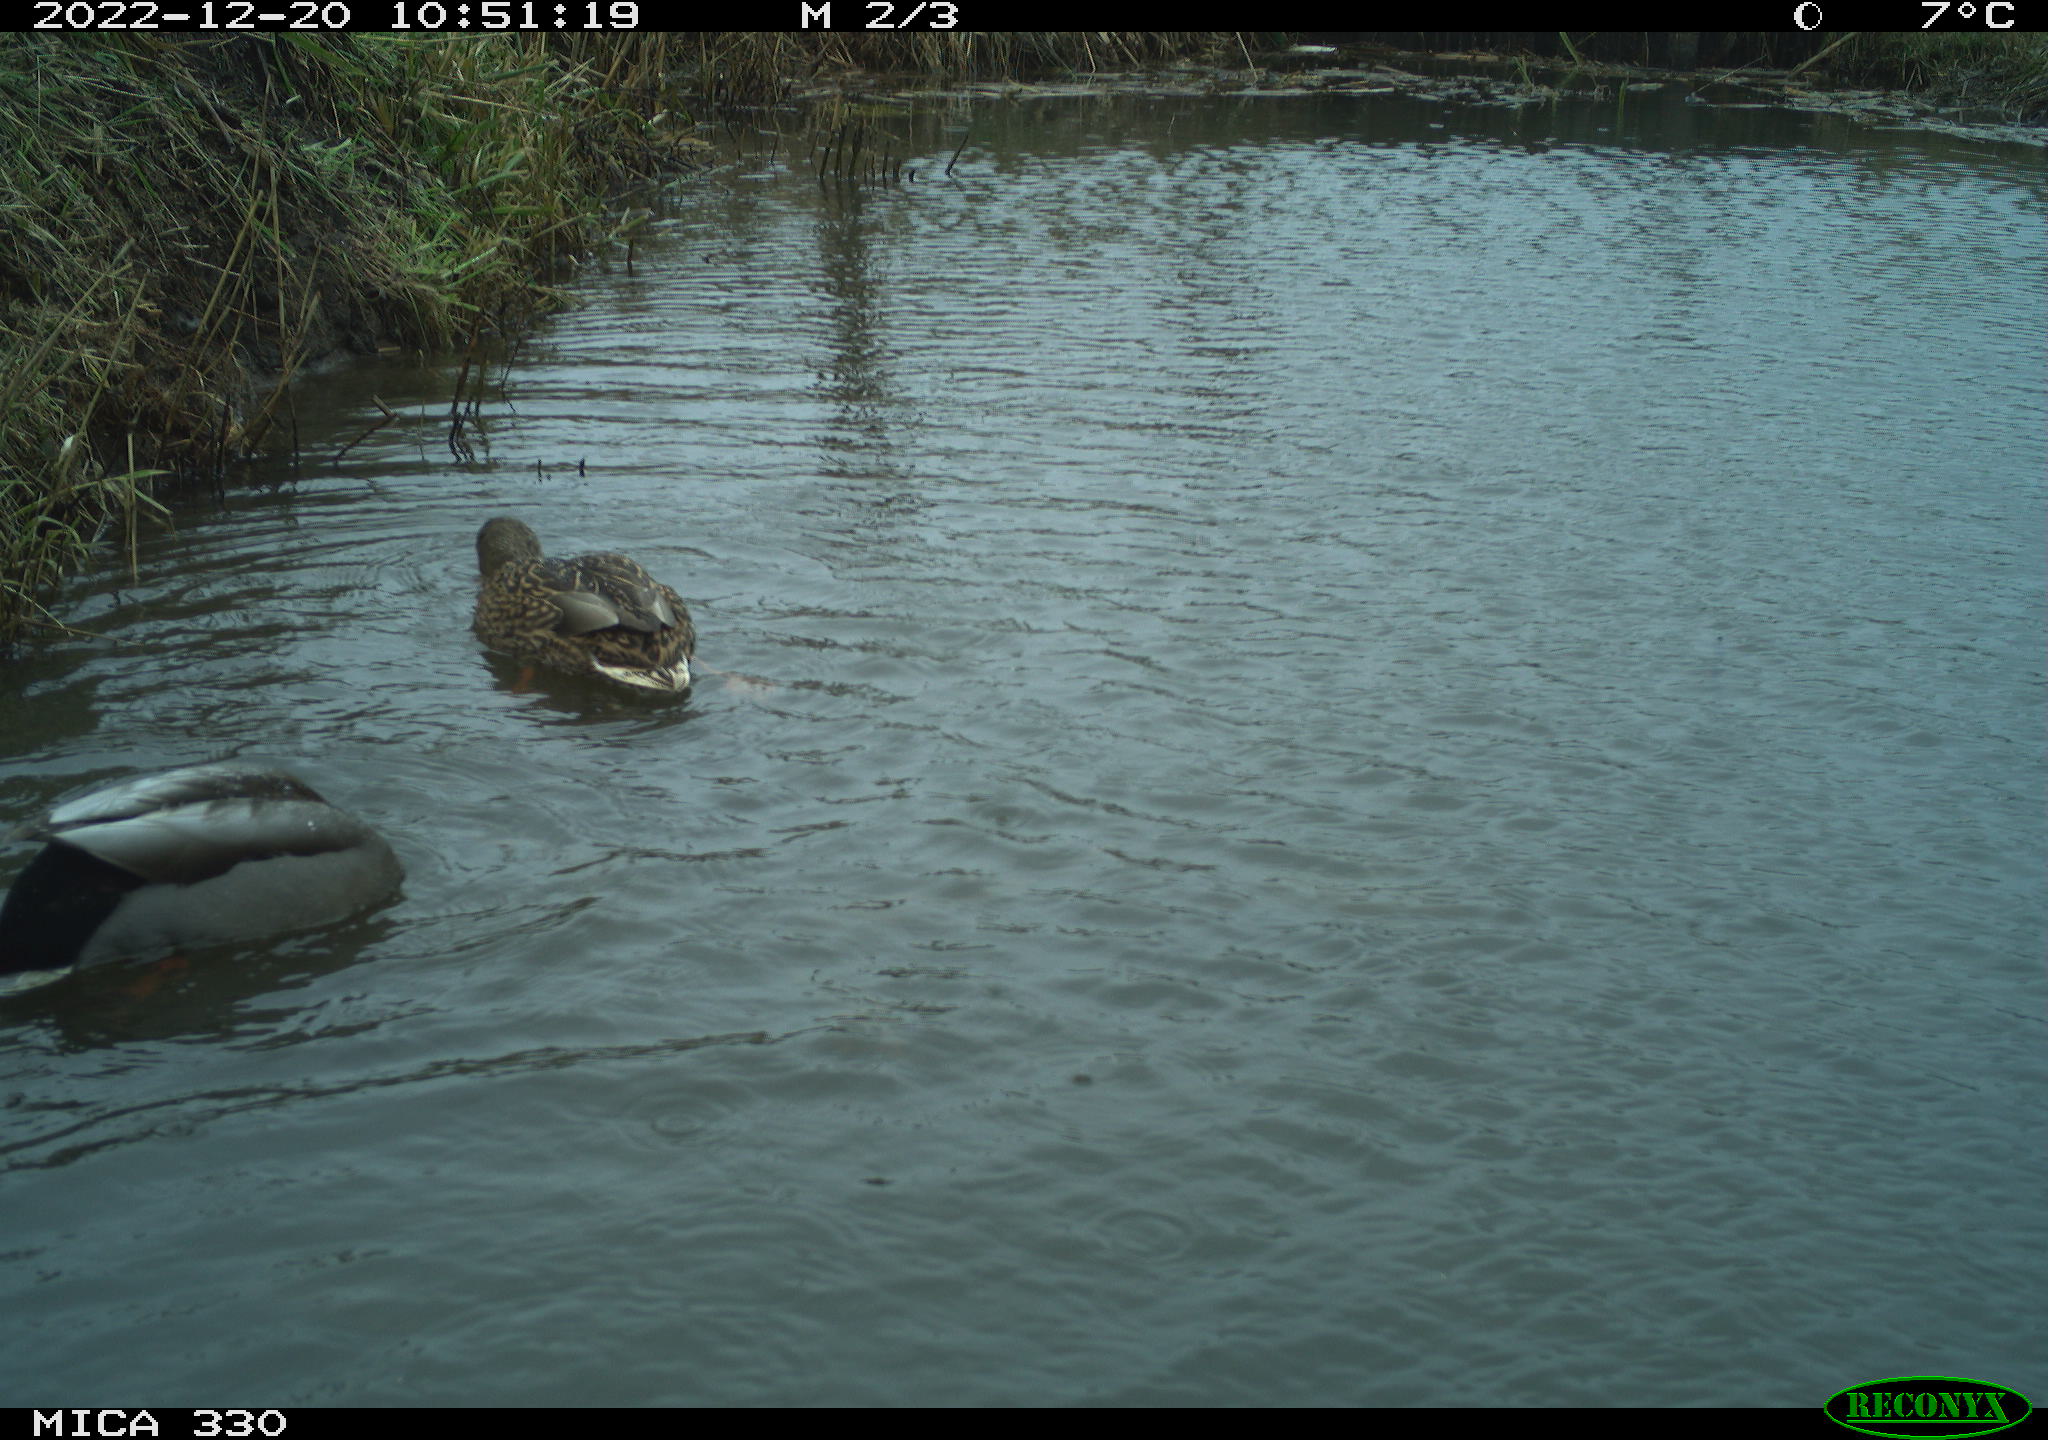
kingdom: Animalia
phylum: Chordata
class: Aves
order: Anseriformes
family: Anatidae
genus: Anas
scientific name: Anas
